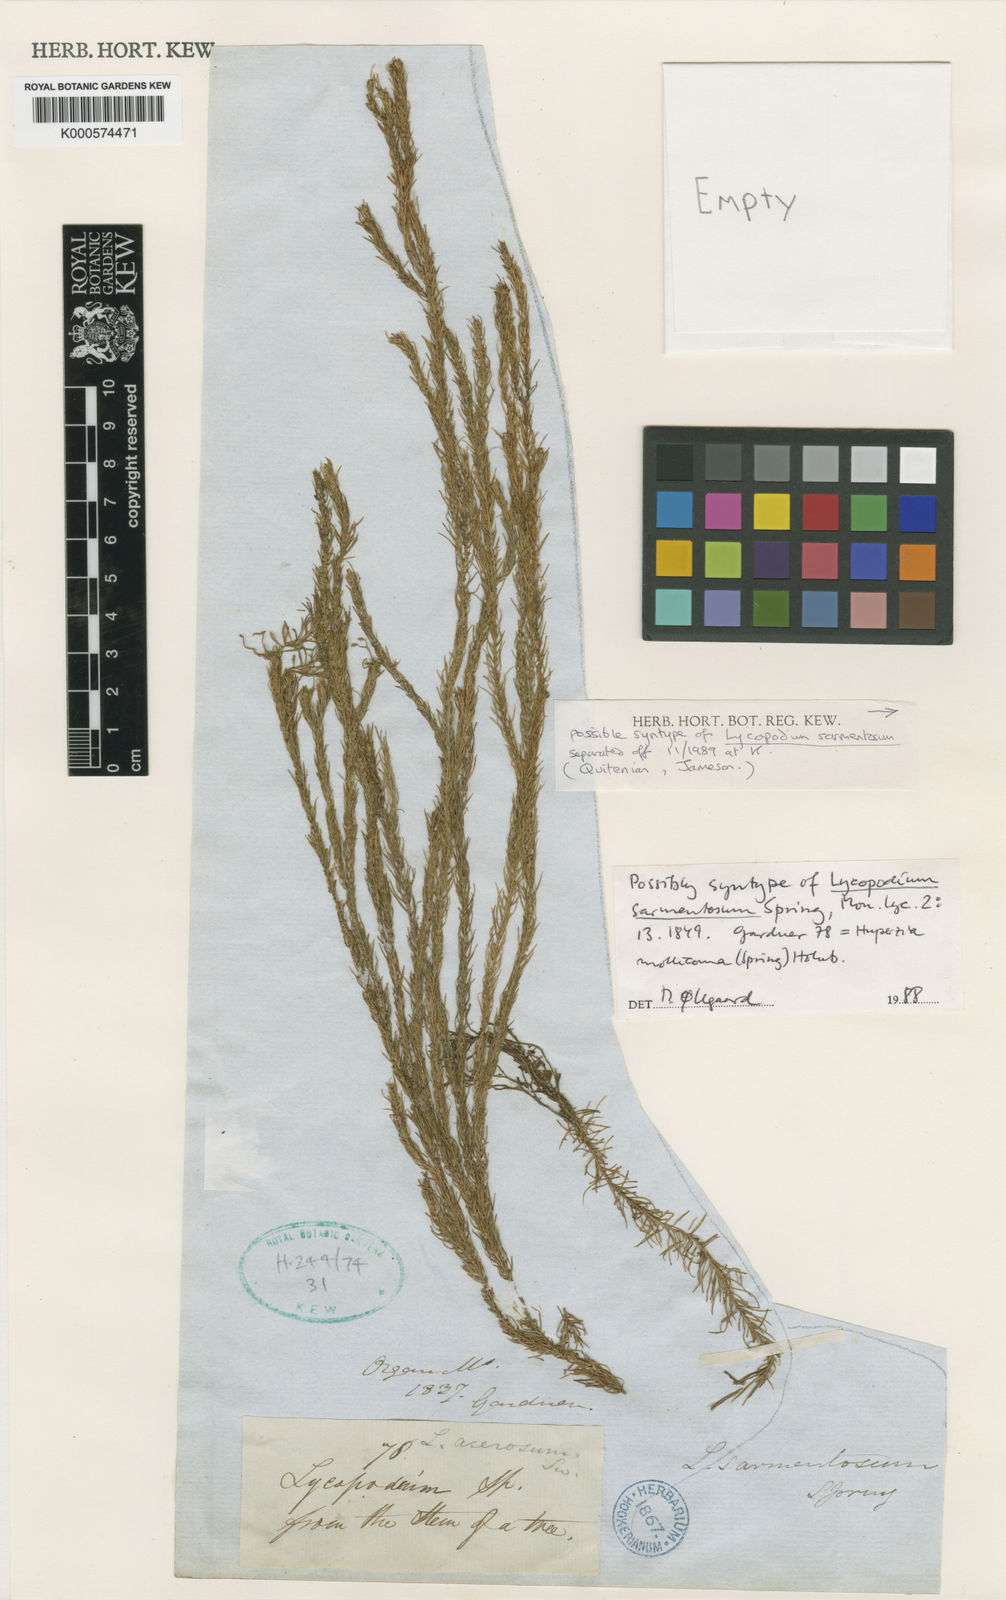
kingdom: Plantae
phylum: Tracheophyta
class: Lycopodiopsida
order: Lycopodiales
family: Lycopodiaceae
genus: Phlegmariurus
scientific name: Phlegmariurus sarmentosus
